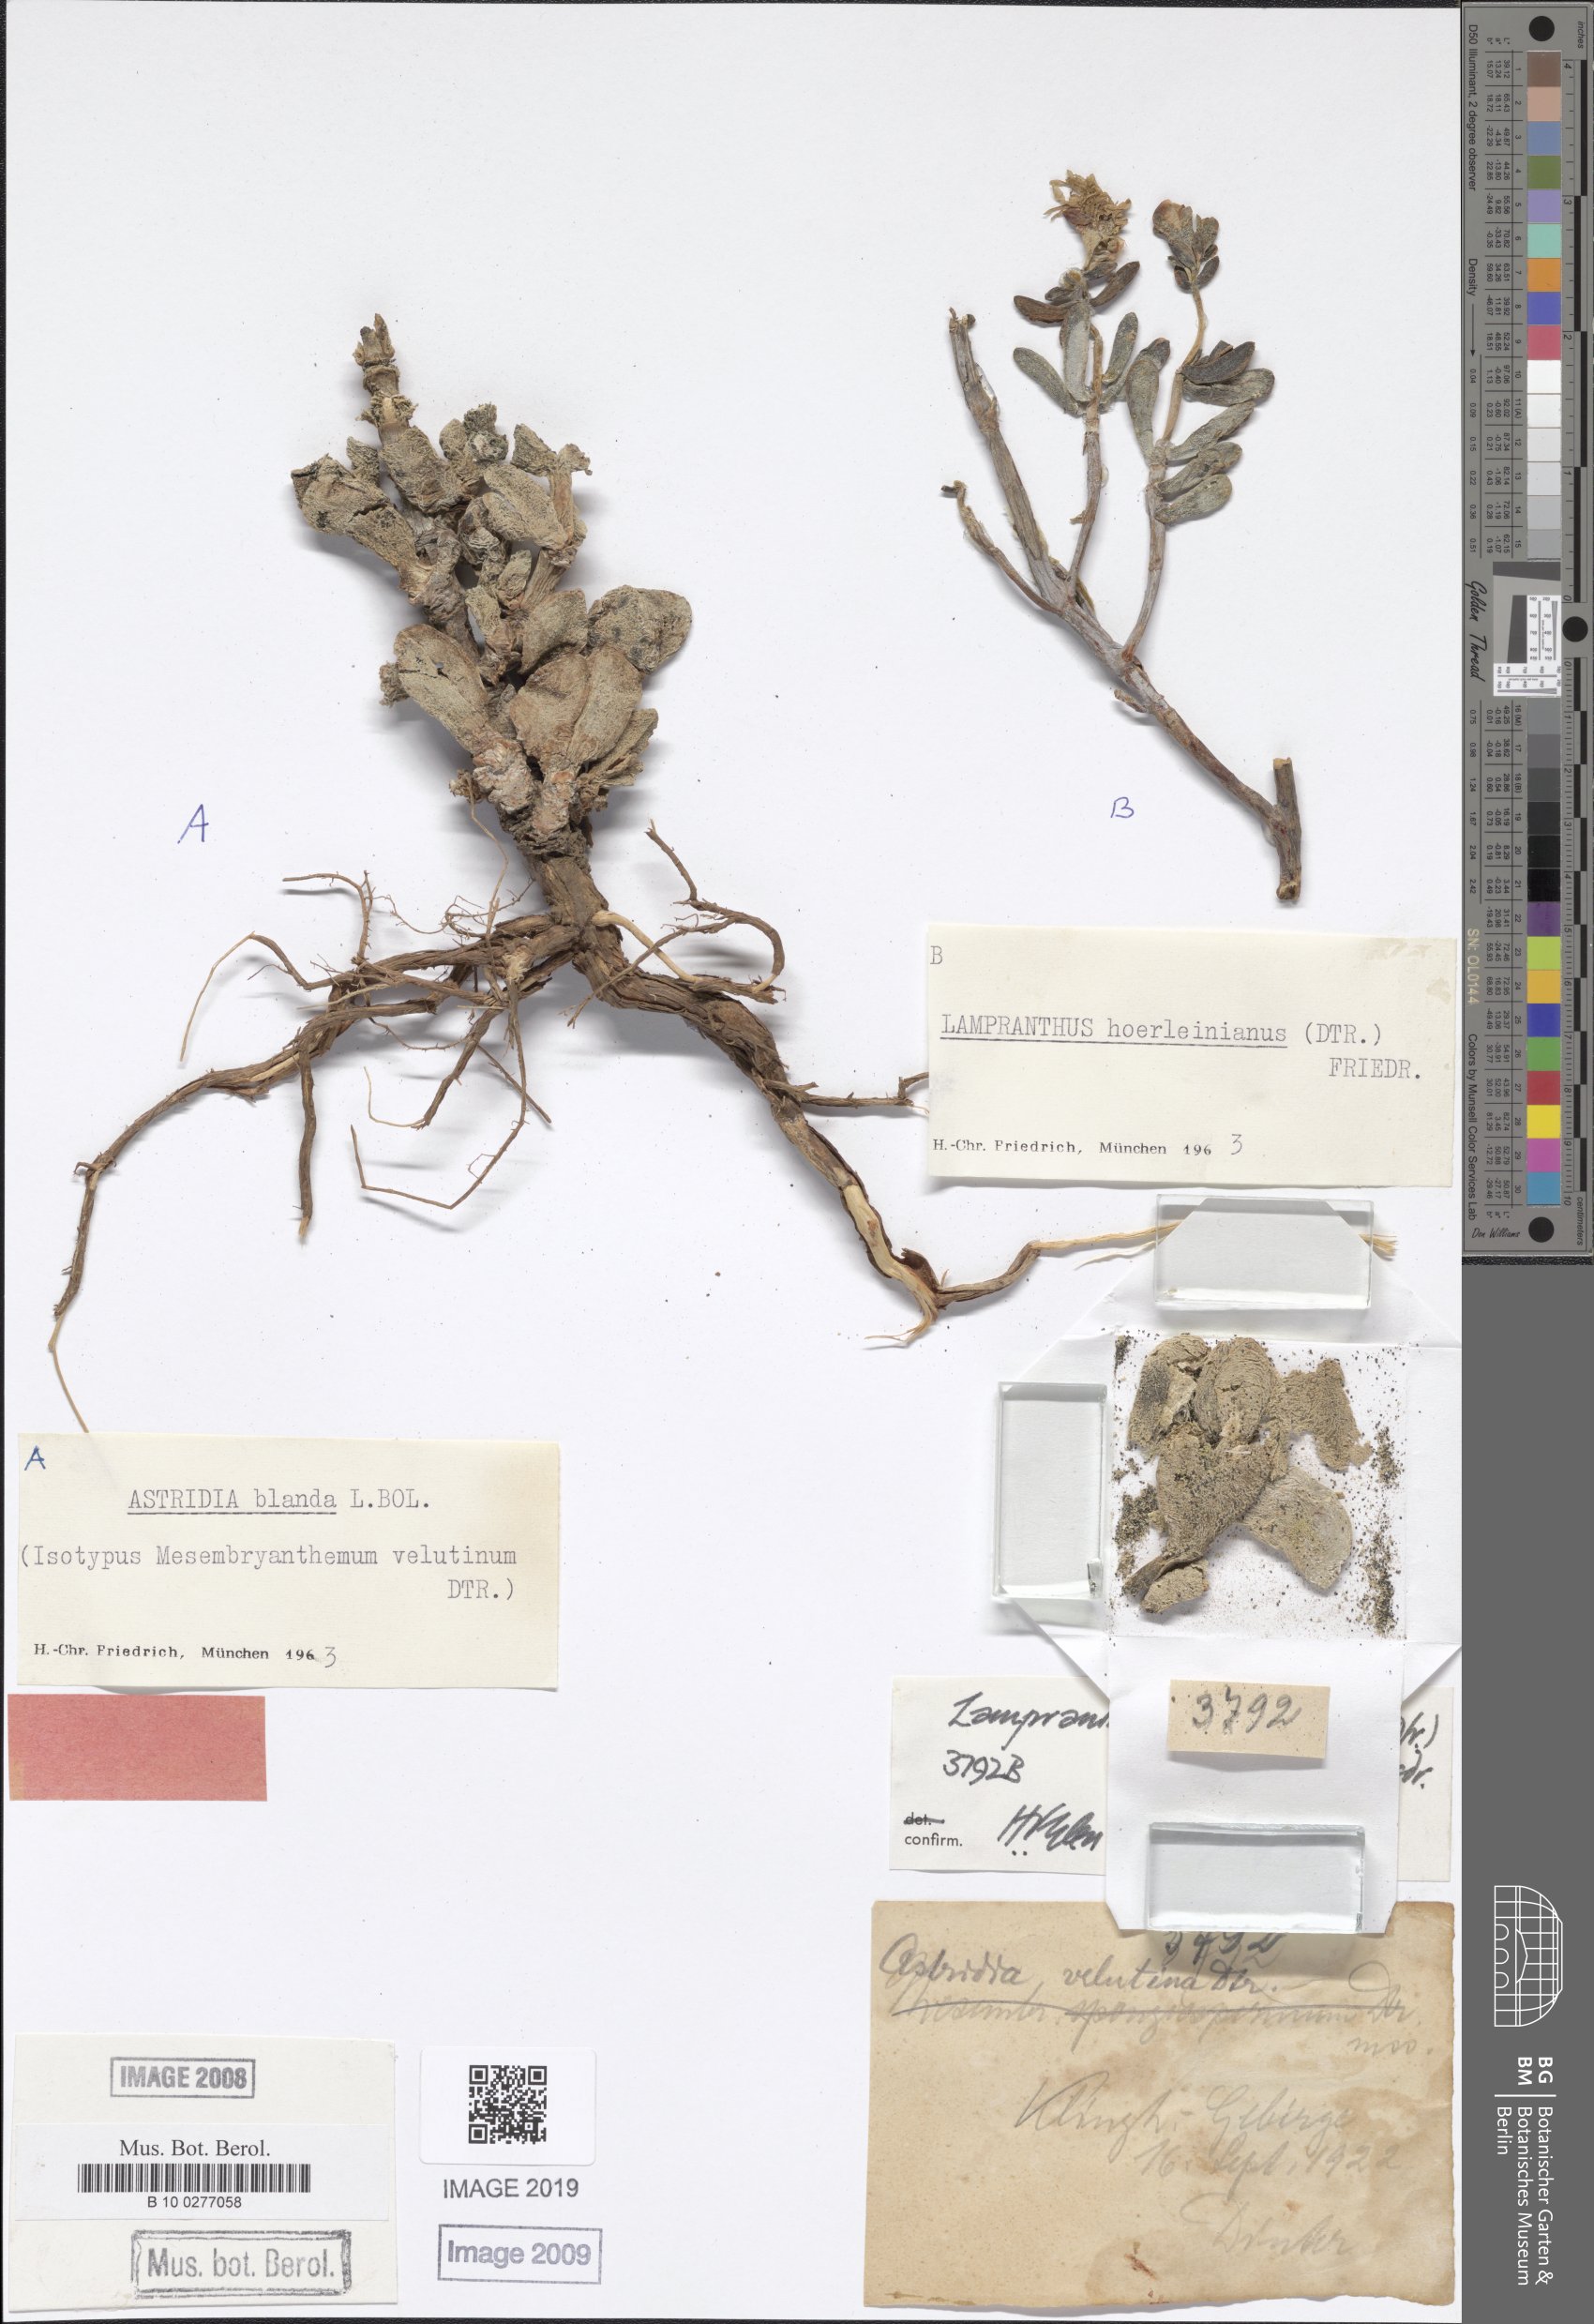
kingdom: Plantae
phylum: Tracheophyta
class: Magnoliopsida
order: Caryophyllales
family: Aizoaceae
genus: Astridia
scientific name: Astridia velutina
